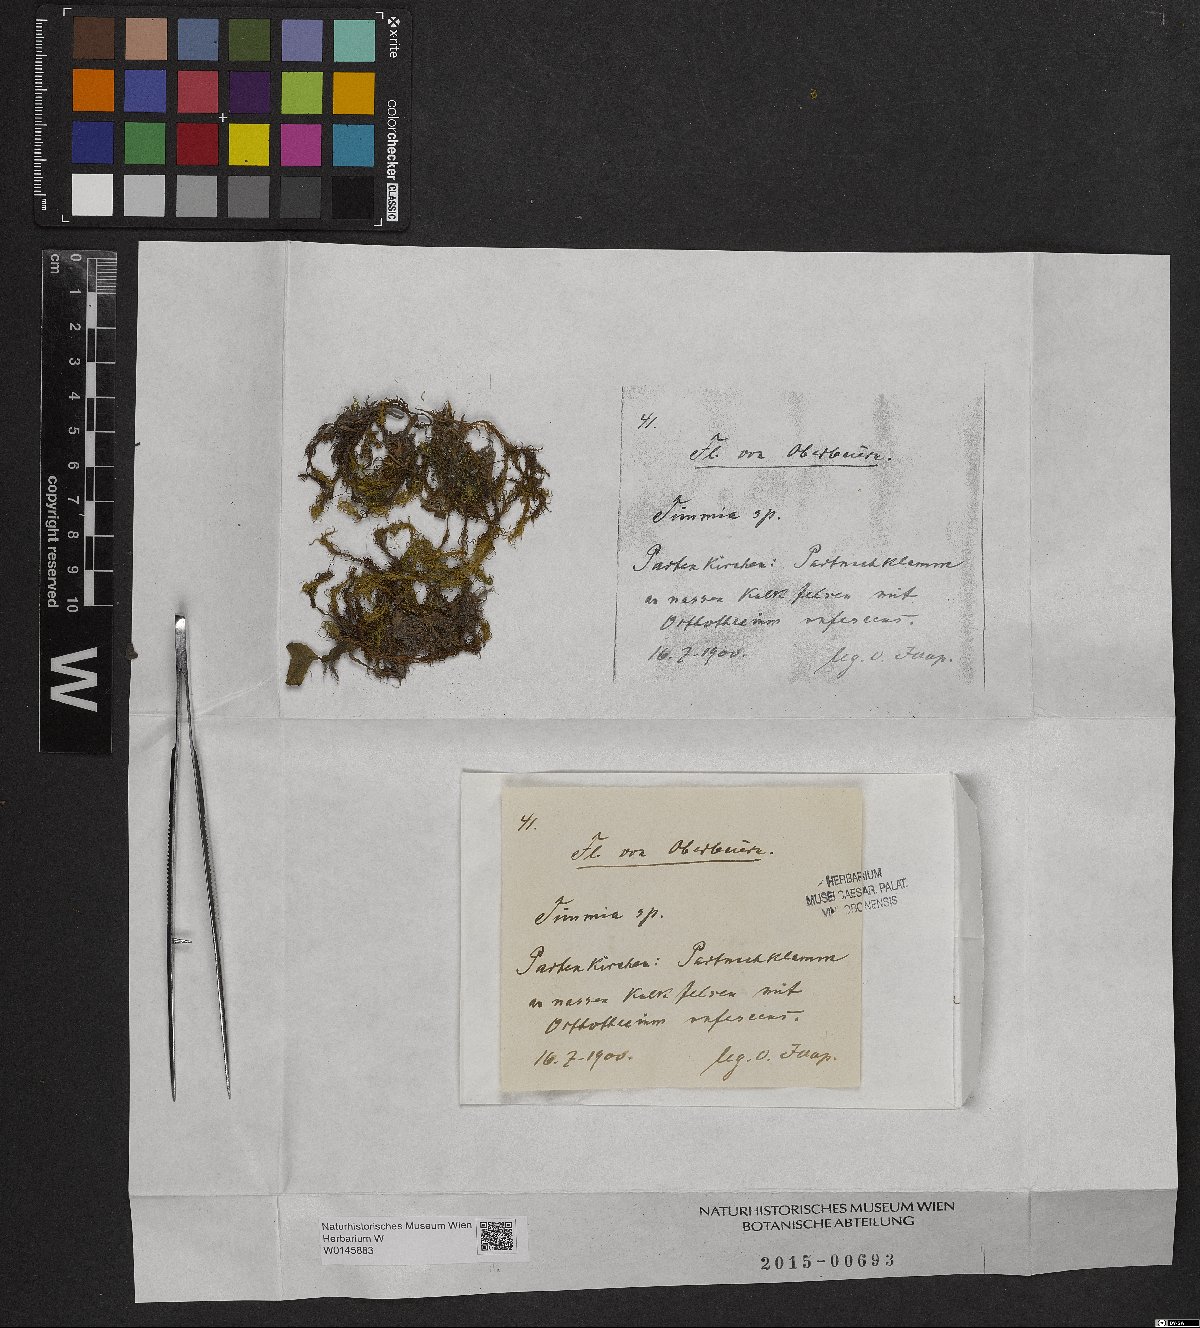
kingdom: Plantae
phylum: Bryophyta
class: Bryopsida
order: Timmiales
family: Timmiaceae
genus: Timmia
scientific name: Timmia
